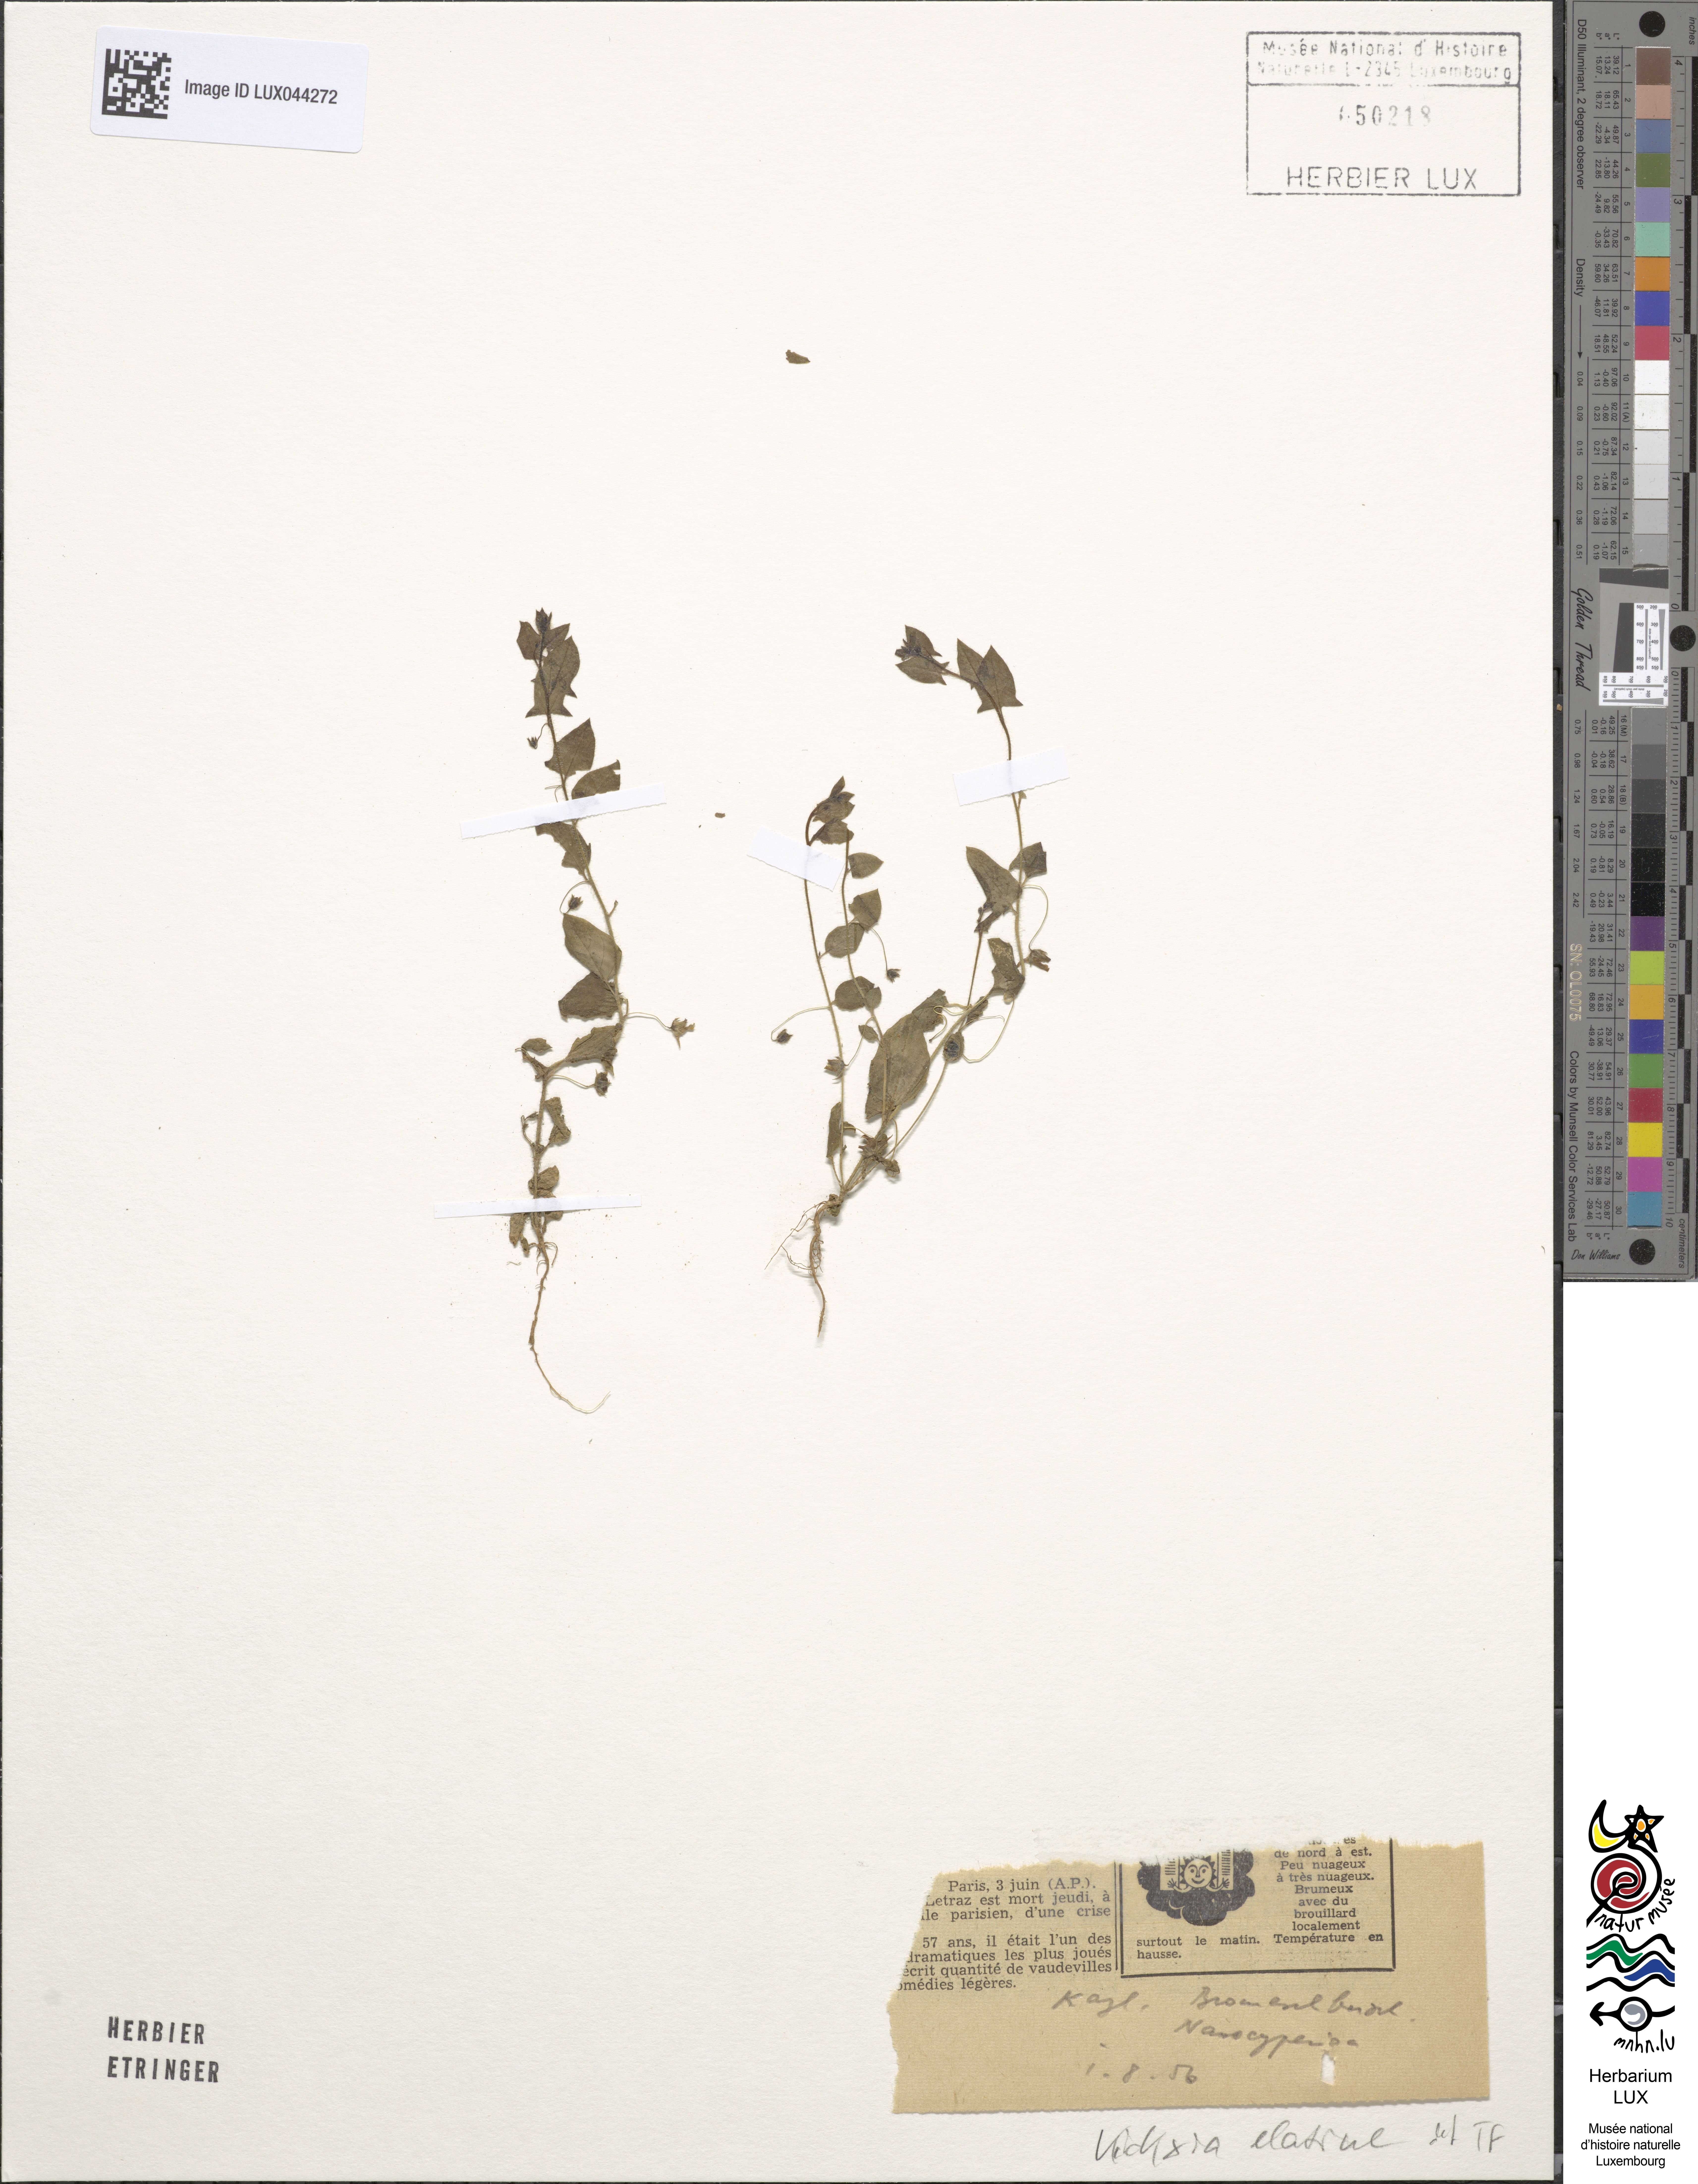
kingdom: Plantae
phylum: Tracheophyta
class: Magnoliopsida
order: Lamiales
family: Plantaginaceae
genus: Kickxia
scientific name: Kickxia elatine
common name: Sharp-leaved fluellen
